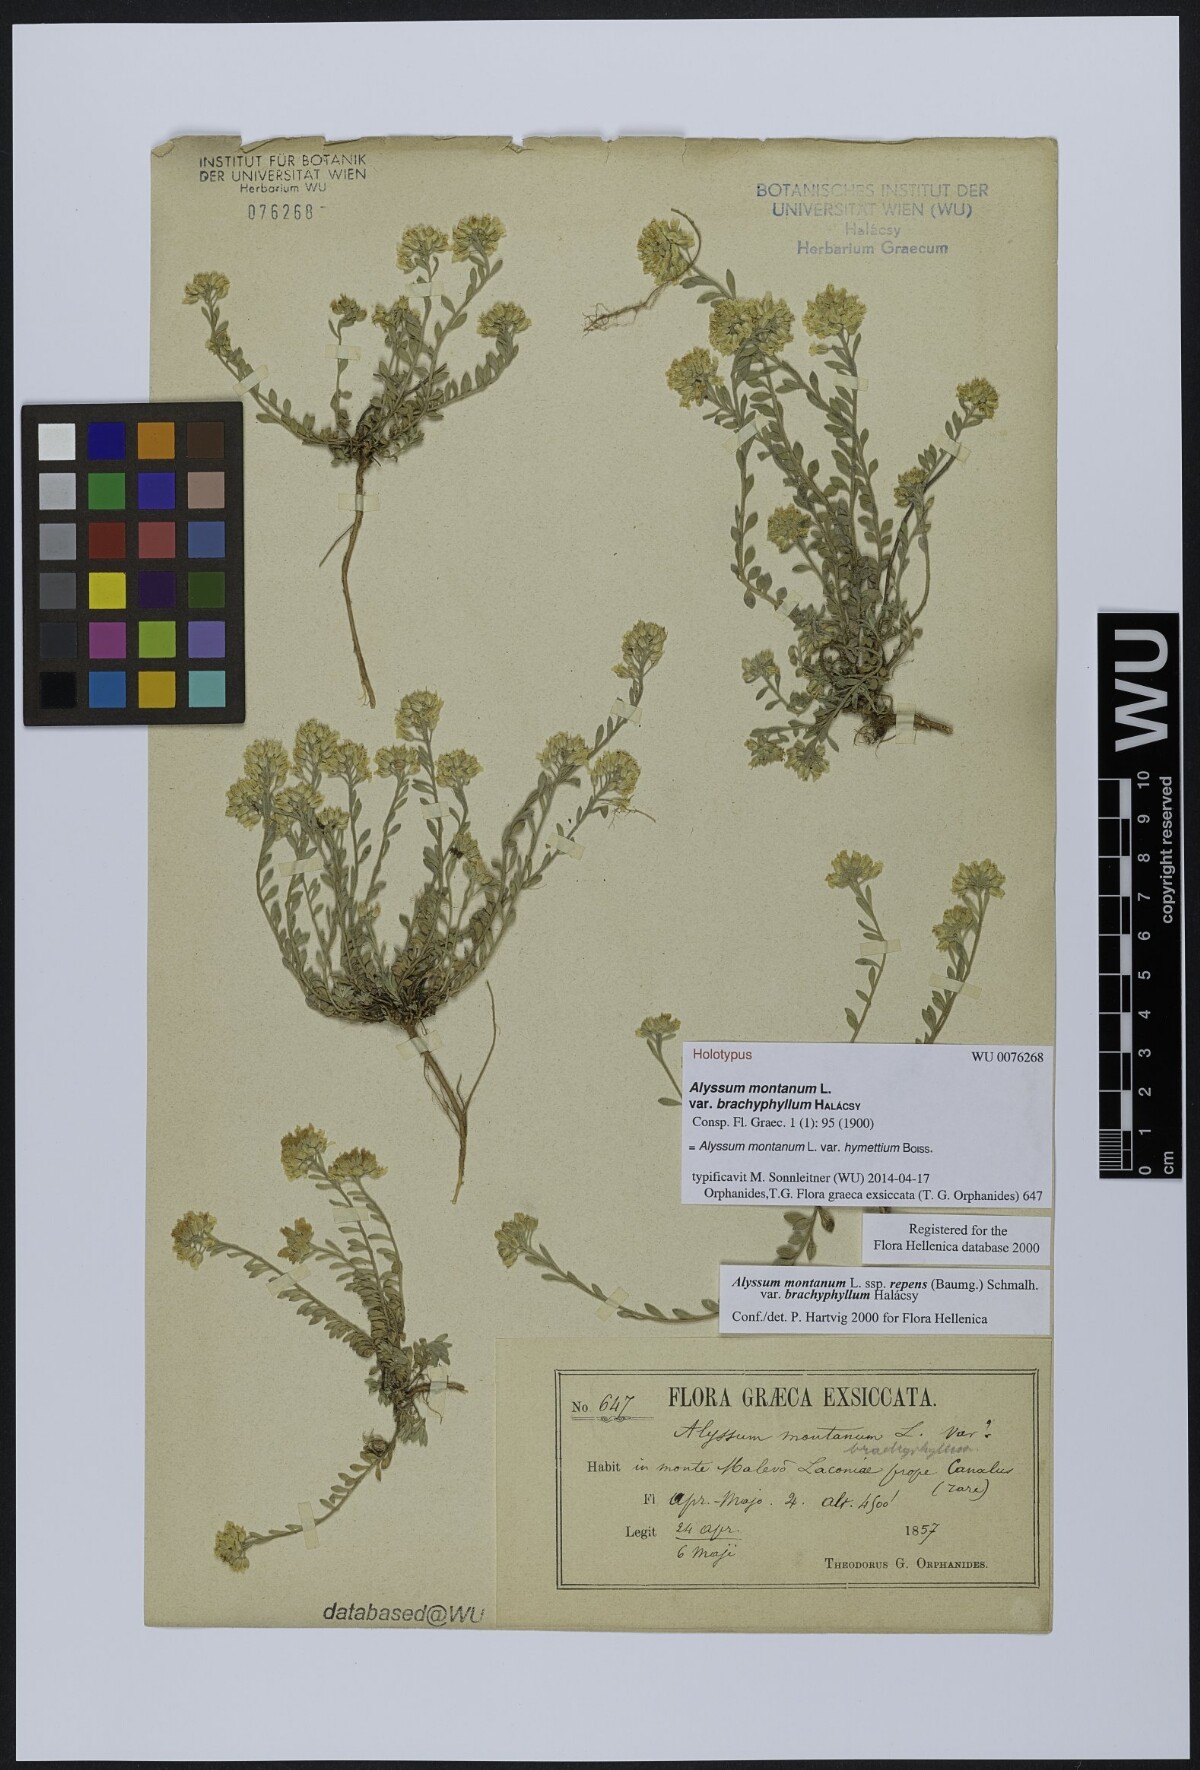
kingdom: Plantae
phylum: Tracheophyta
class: Magnoliopsida
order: Brassicales
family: Brassicaceae
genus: Alyssum
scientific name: Alyssum montanum
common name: Mountain alison
